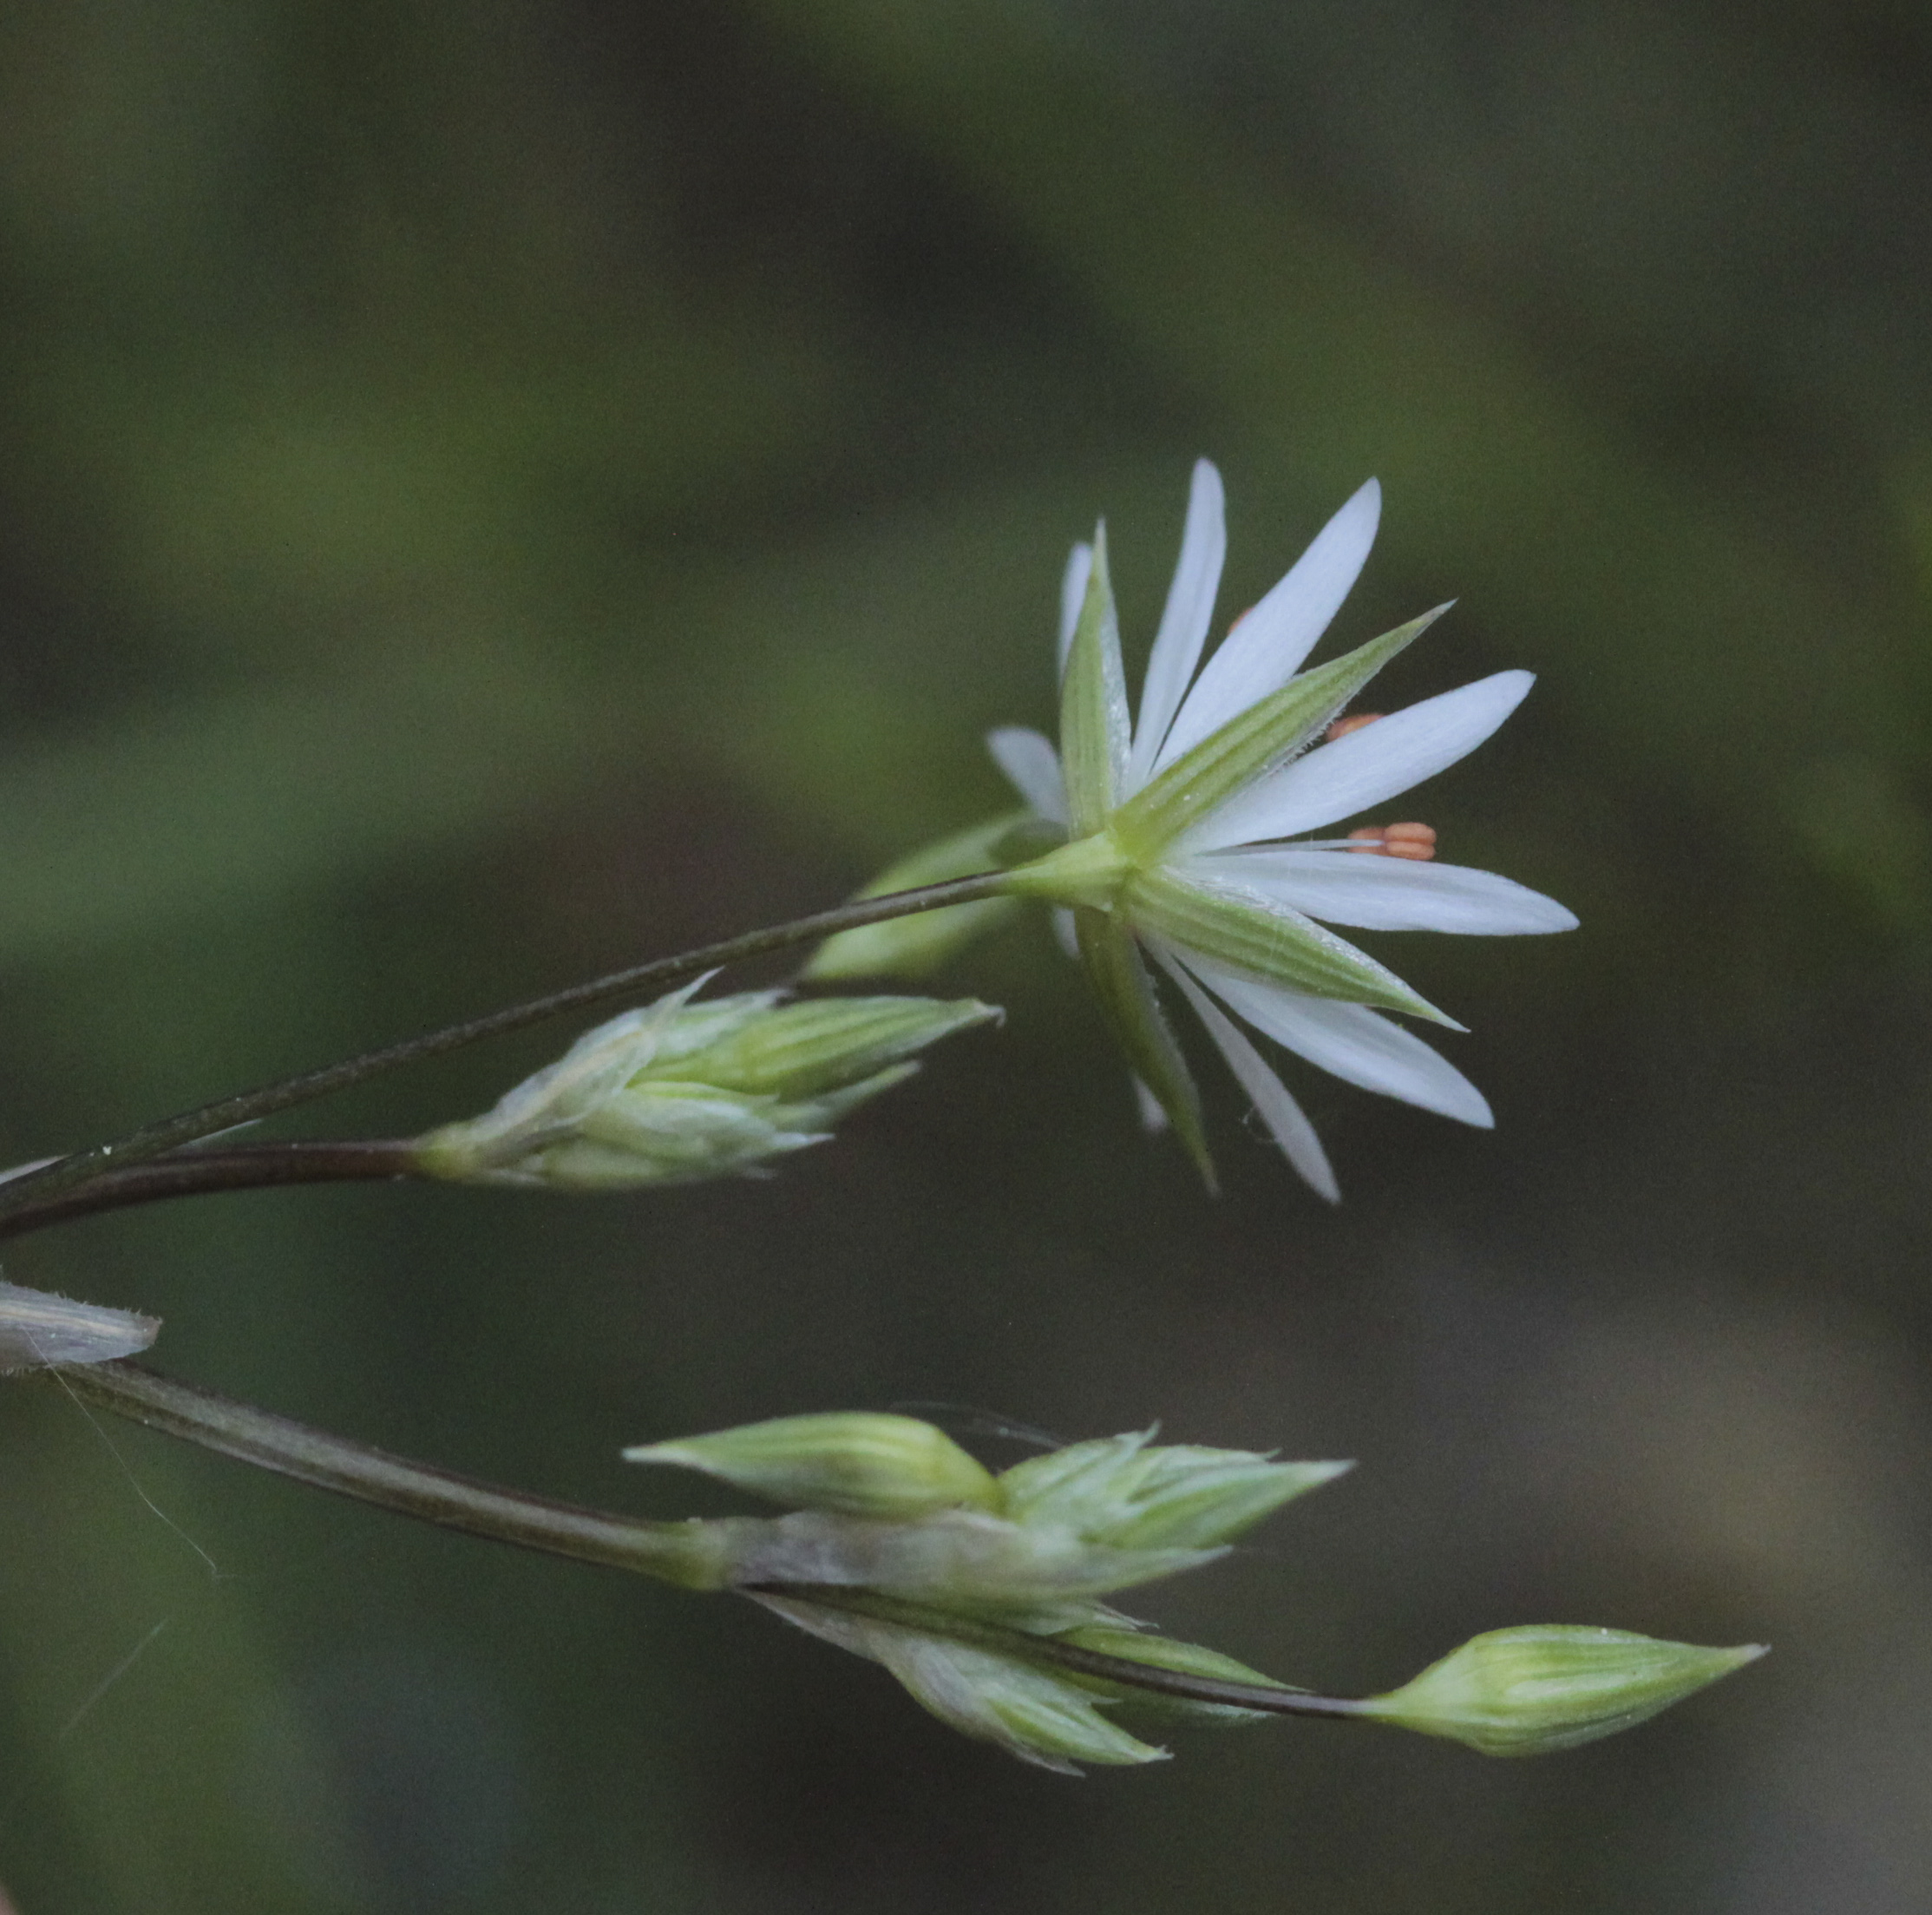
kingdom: Plantae
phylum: Tracheophyta
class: Magnoliopsida
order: Caryophyllales
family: Caryophyllaceae
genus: Stellaria
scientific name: Stellaria graminea
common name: Grass-like starwort
